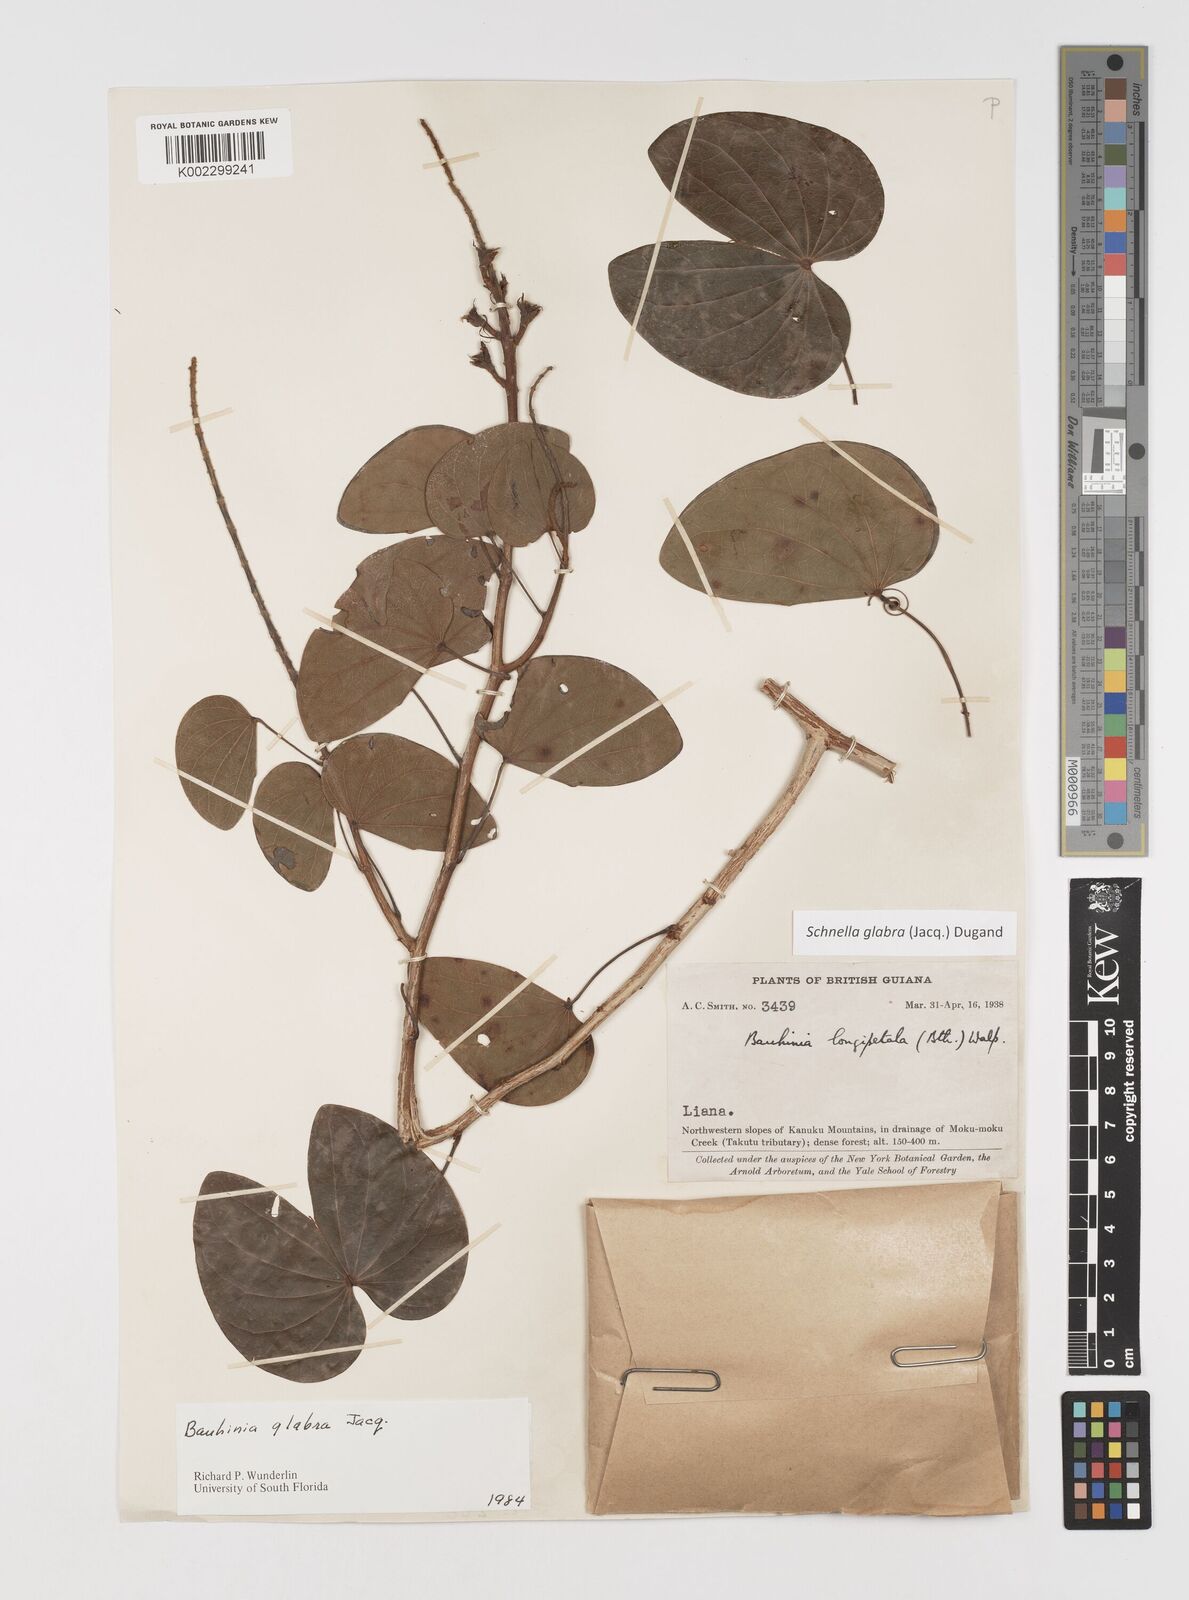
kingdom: Plantae
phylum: Tracheophyta
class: Magnoliopsida
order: Fabales
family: Fabaceae
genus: Schnella
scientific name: Schnella glabra
